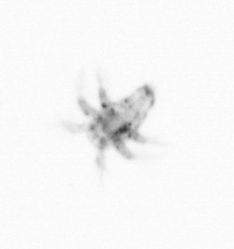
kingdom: Animalia
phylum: Arthropoda
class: Copepoda
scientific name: Copepoda
